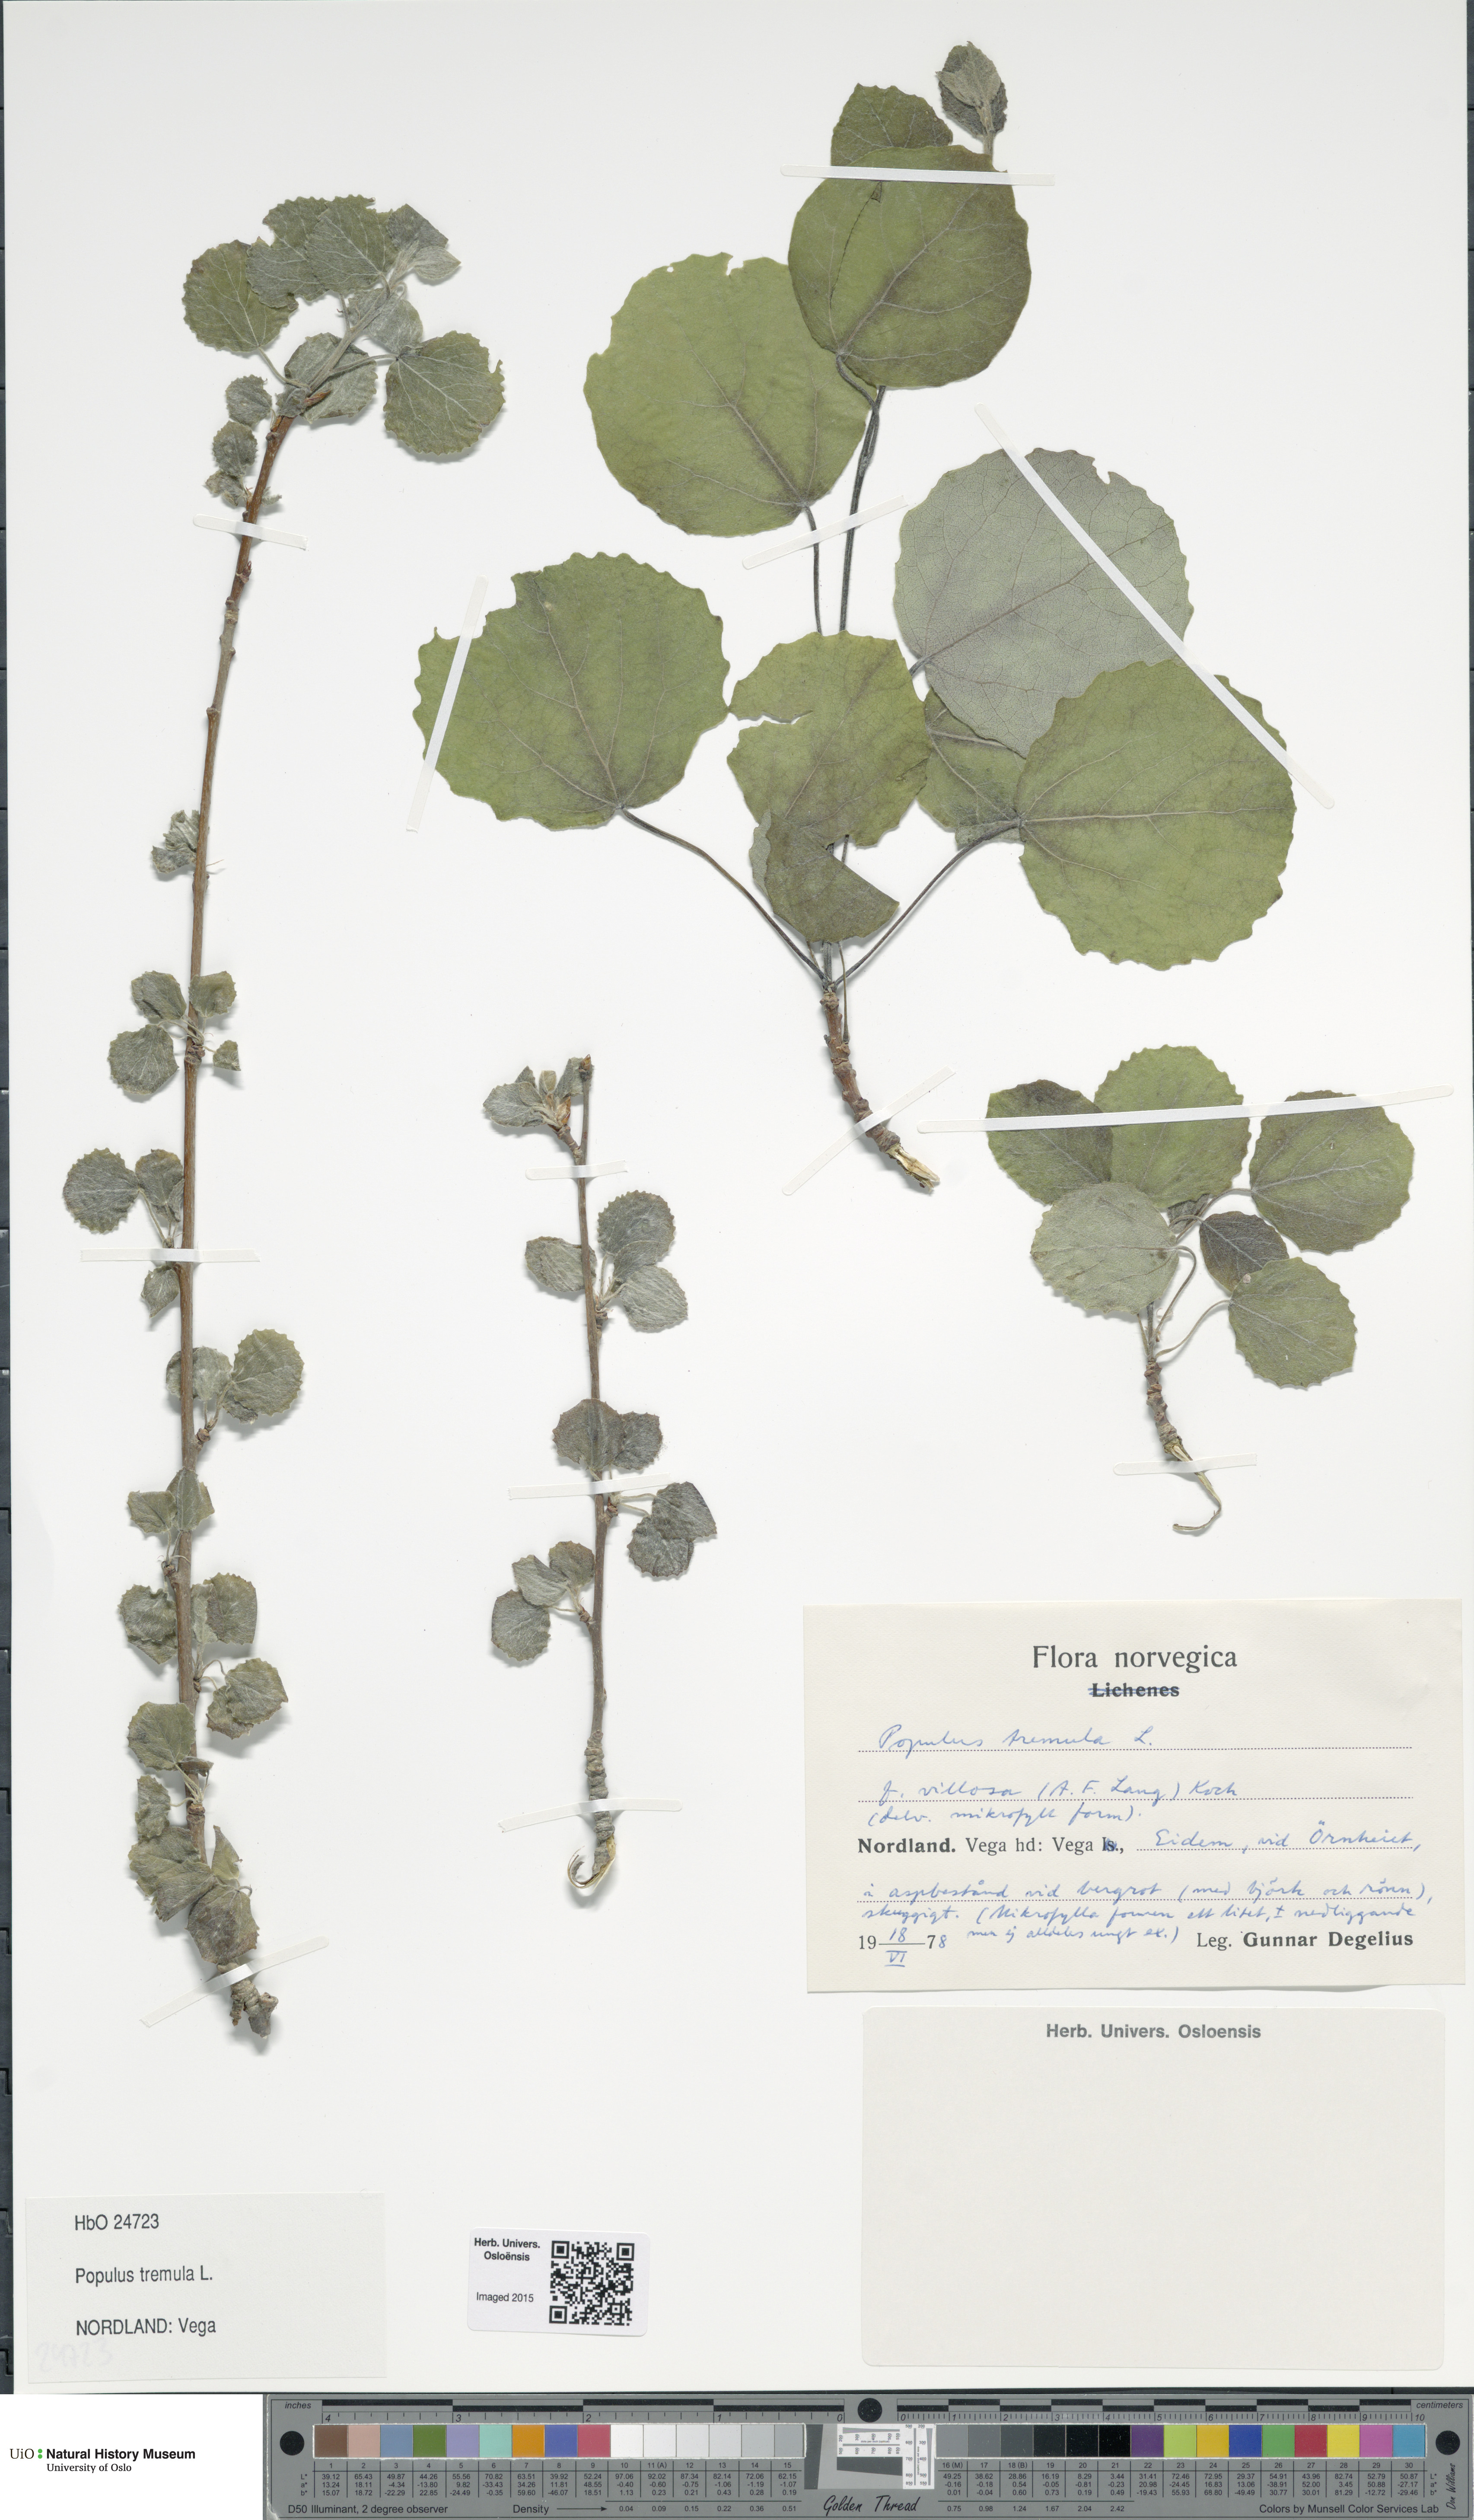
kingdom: Plantae
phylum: Tracheophyta
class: Magnoliopsida
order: Malpighiales
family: Salicaceae
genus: Populus
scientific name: Populus tremula
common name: European aspen
